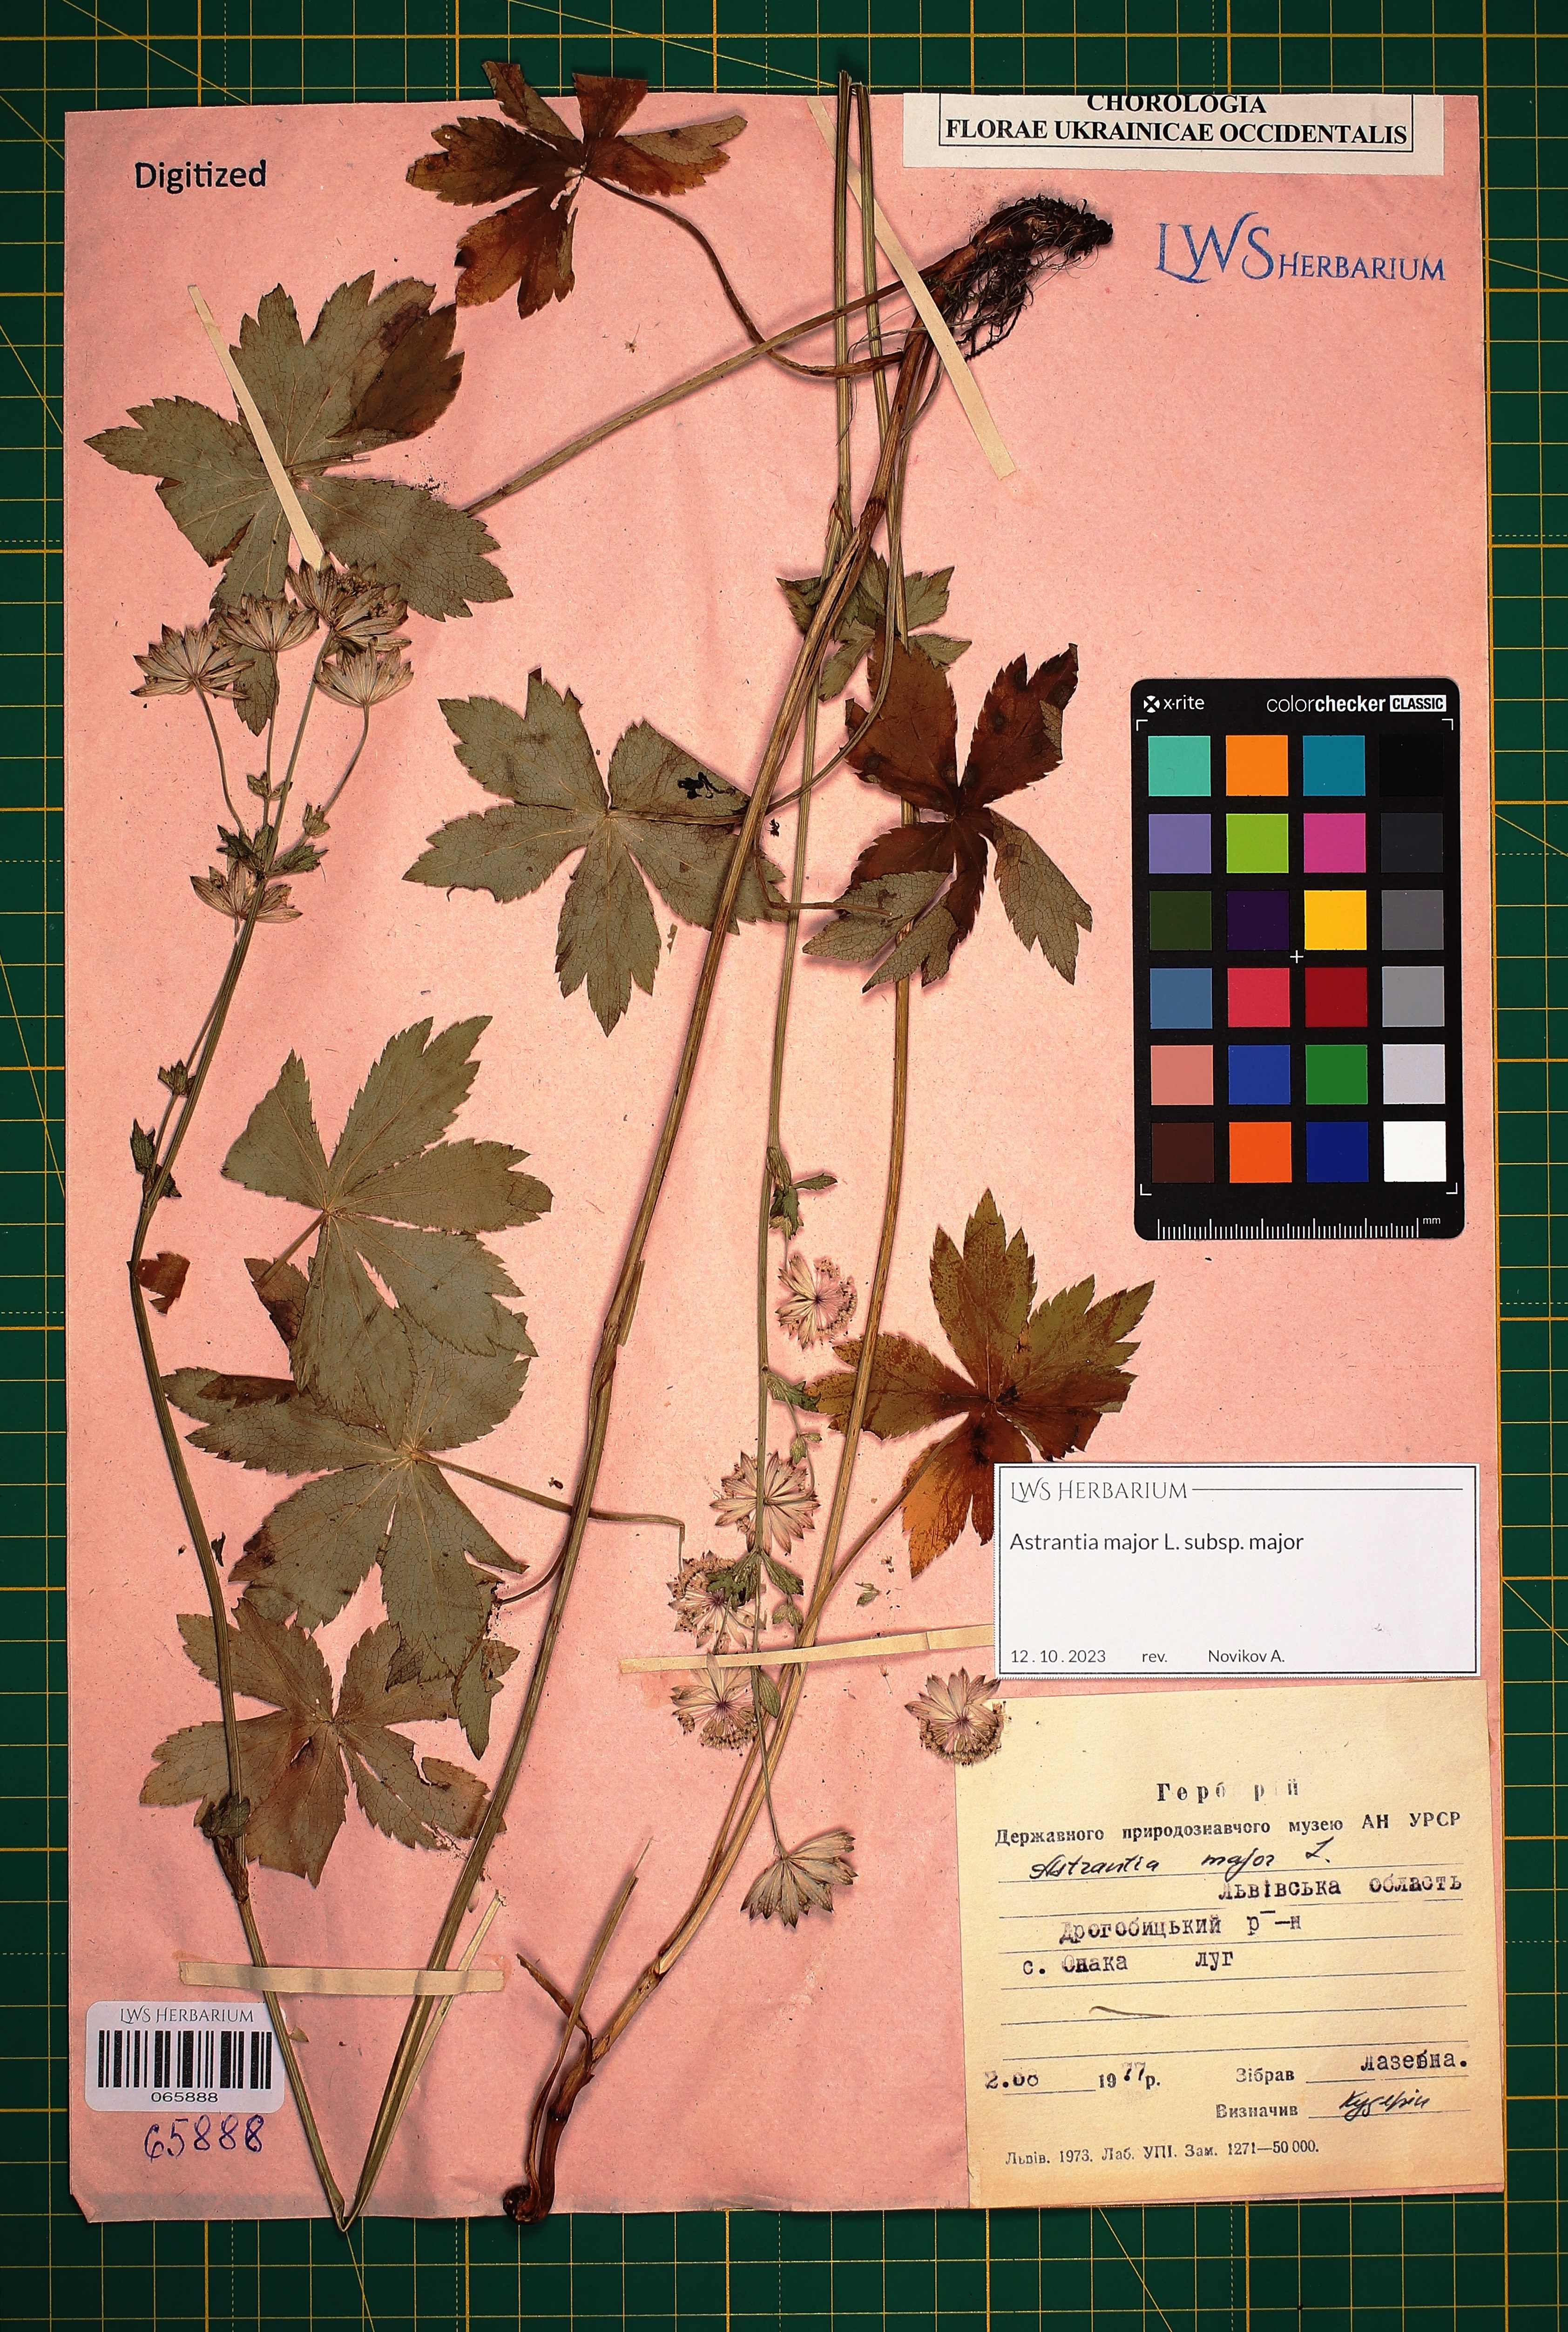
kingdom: Plantae
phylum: Tracheophyta
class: Magnoliopsida
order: Apiales
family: Apiaceae
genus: Astrantia
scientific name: Astrantia major
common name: Greater masterwort
